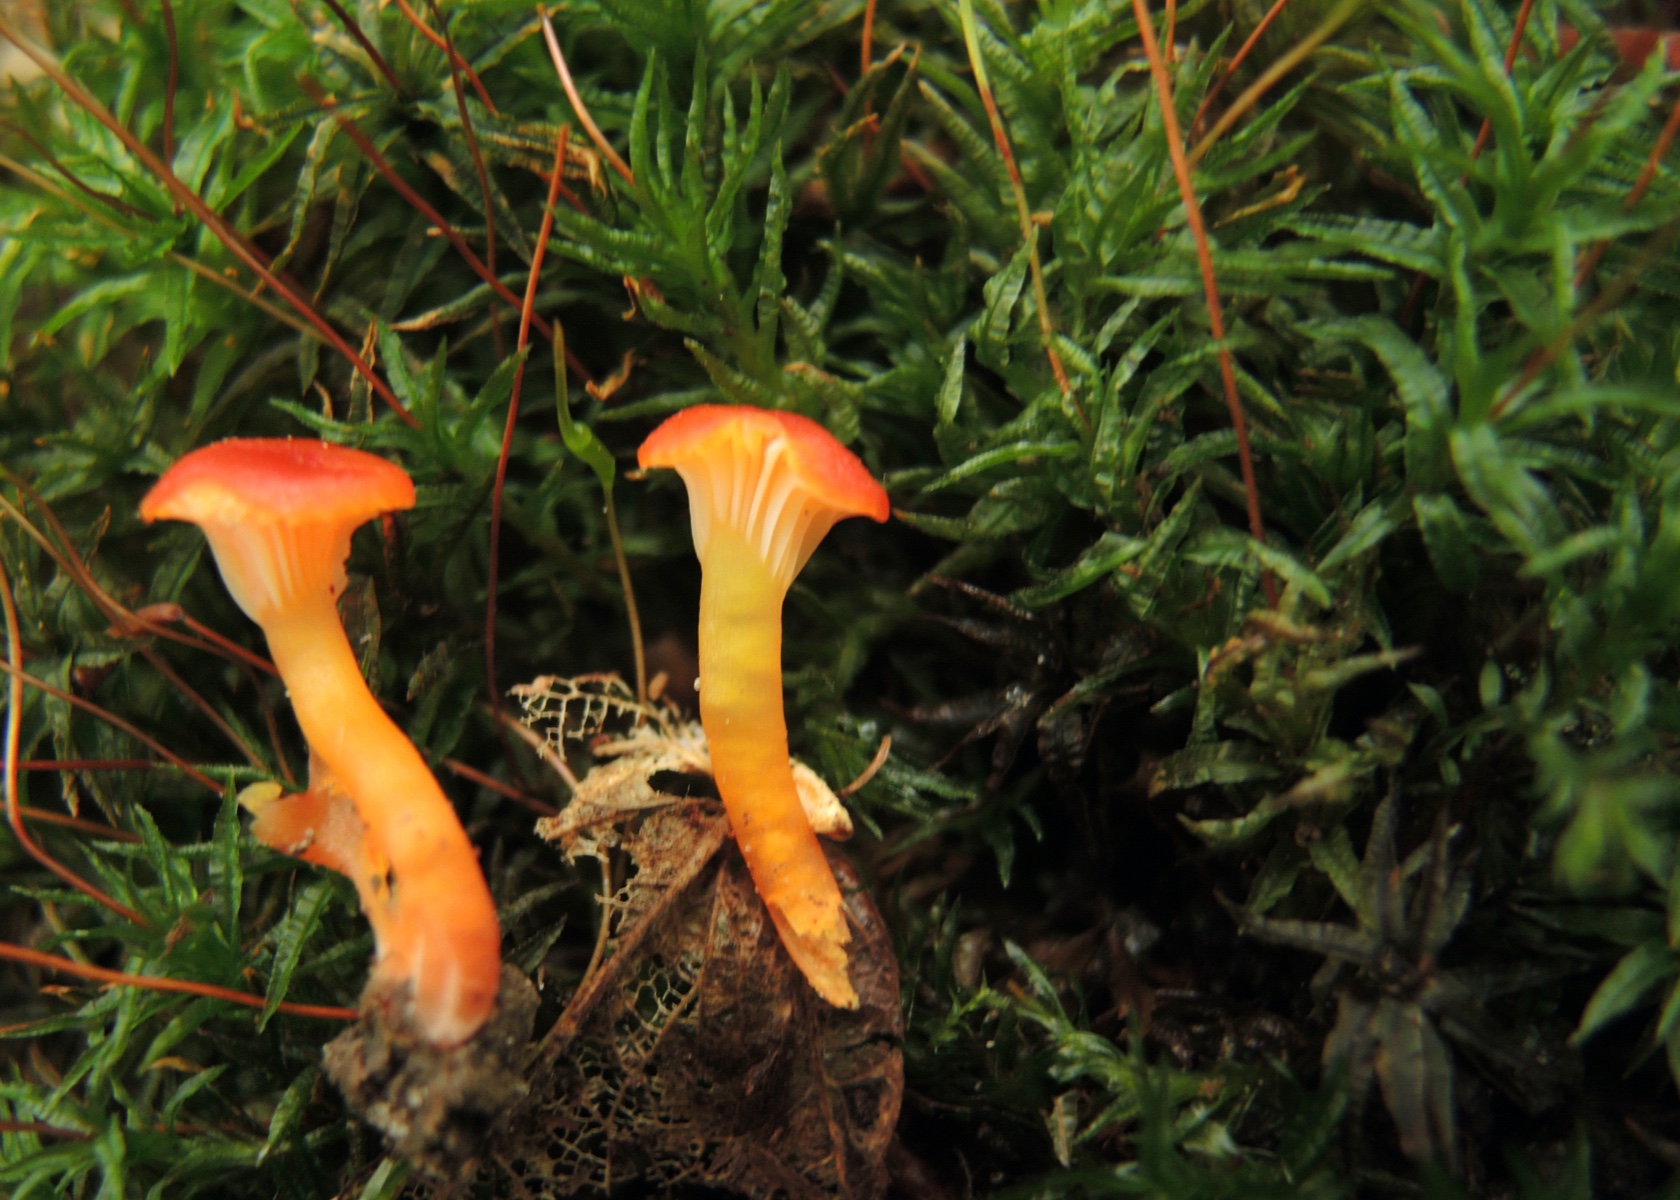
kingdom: Fungi
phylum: Basidiomycota
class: Agaricomycetes
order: Agaricales
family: Hygrophoraceae
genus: Hygrocybe
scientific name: Hygrocybe insipida
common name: liden vokshat
